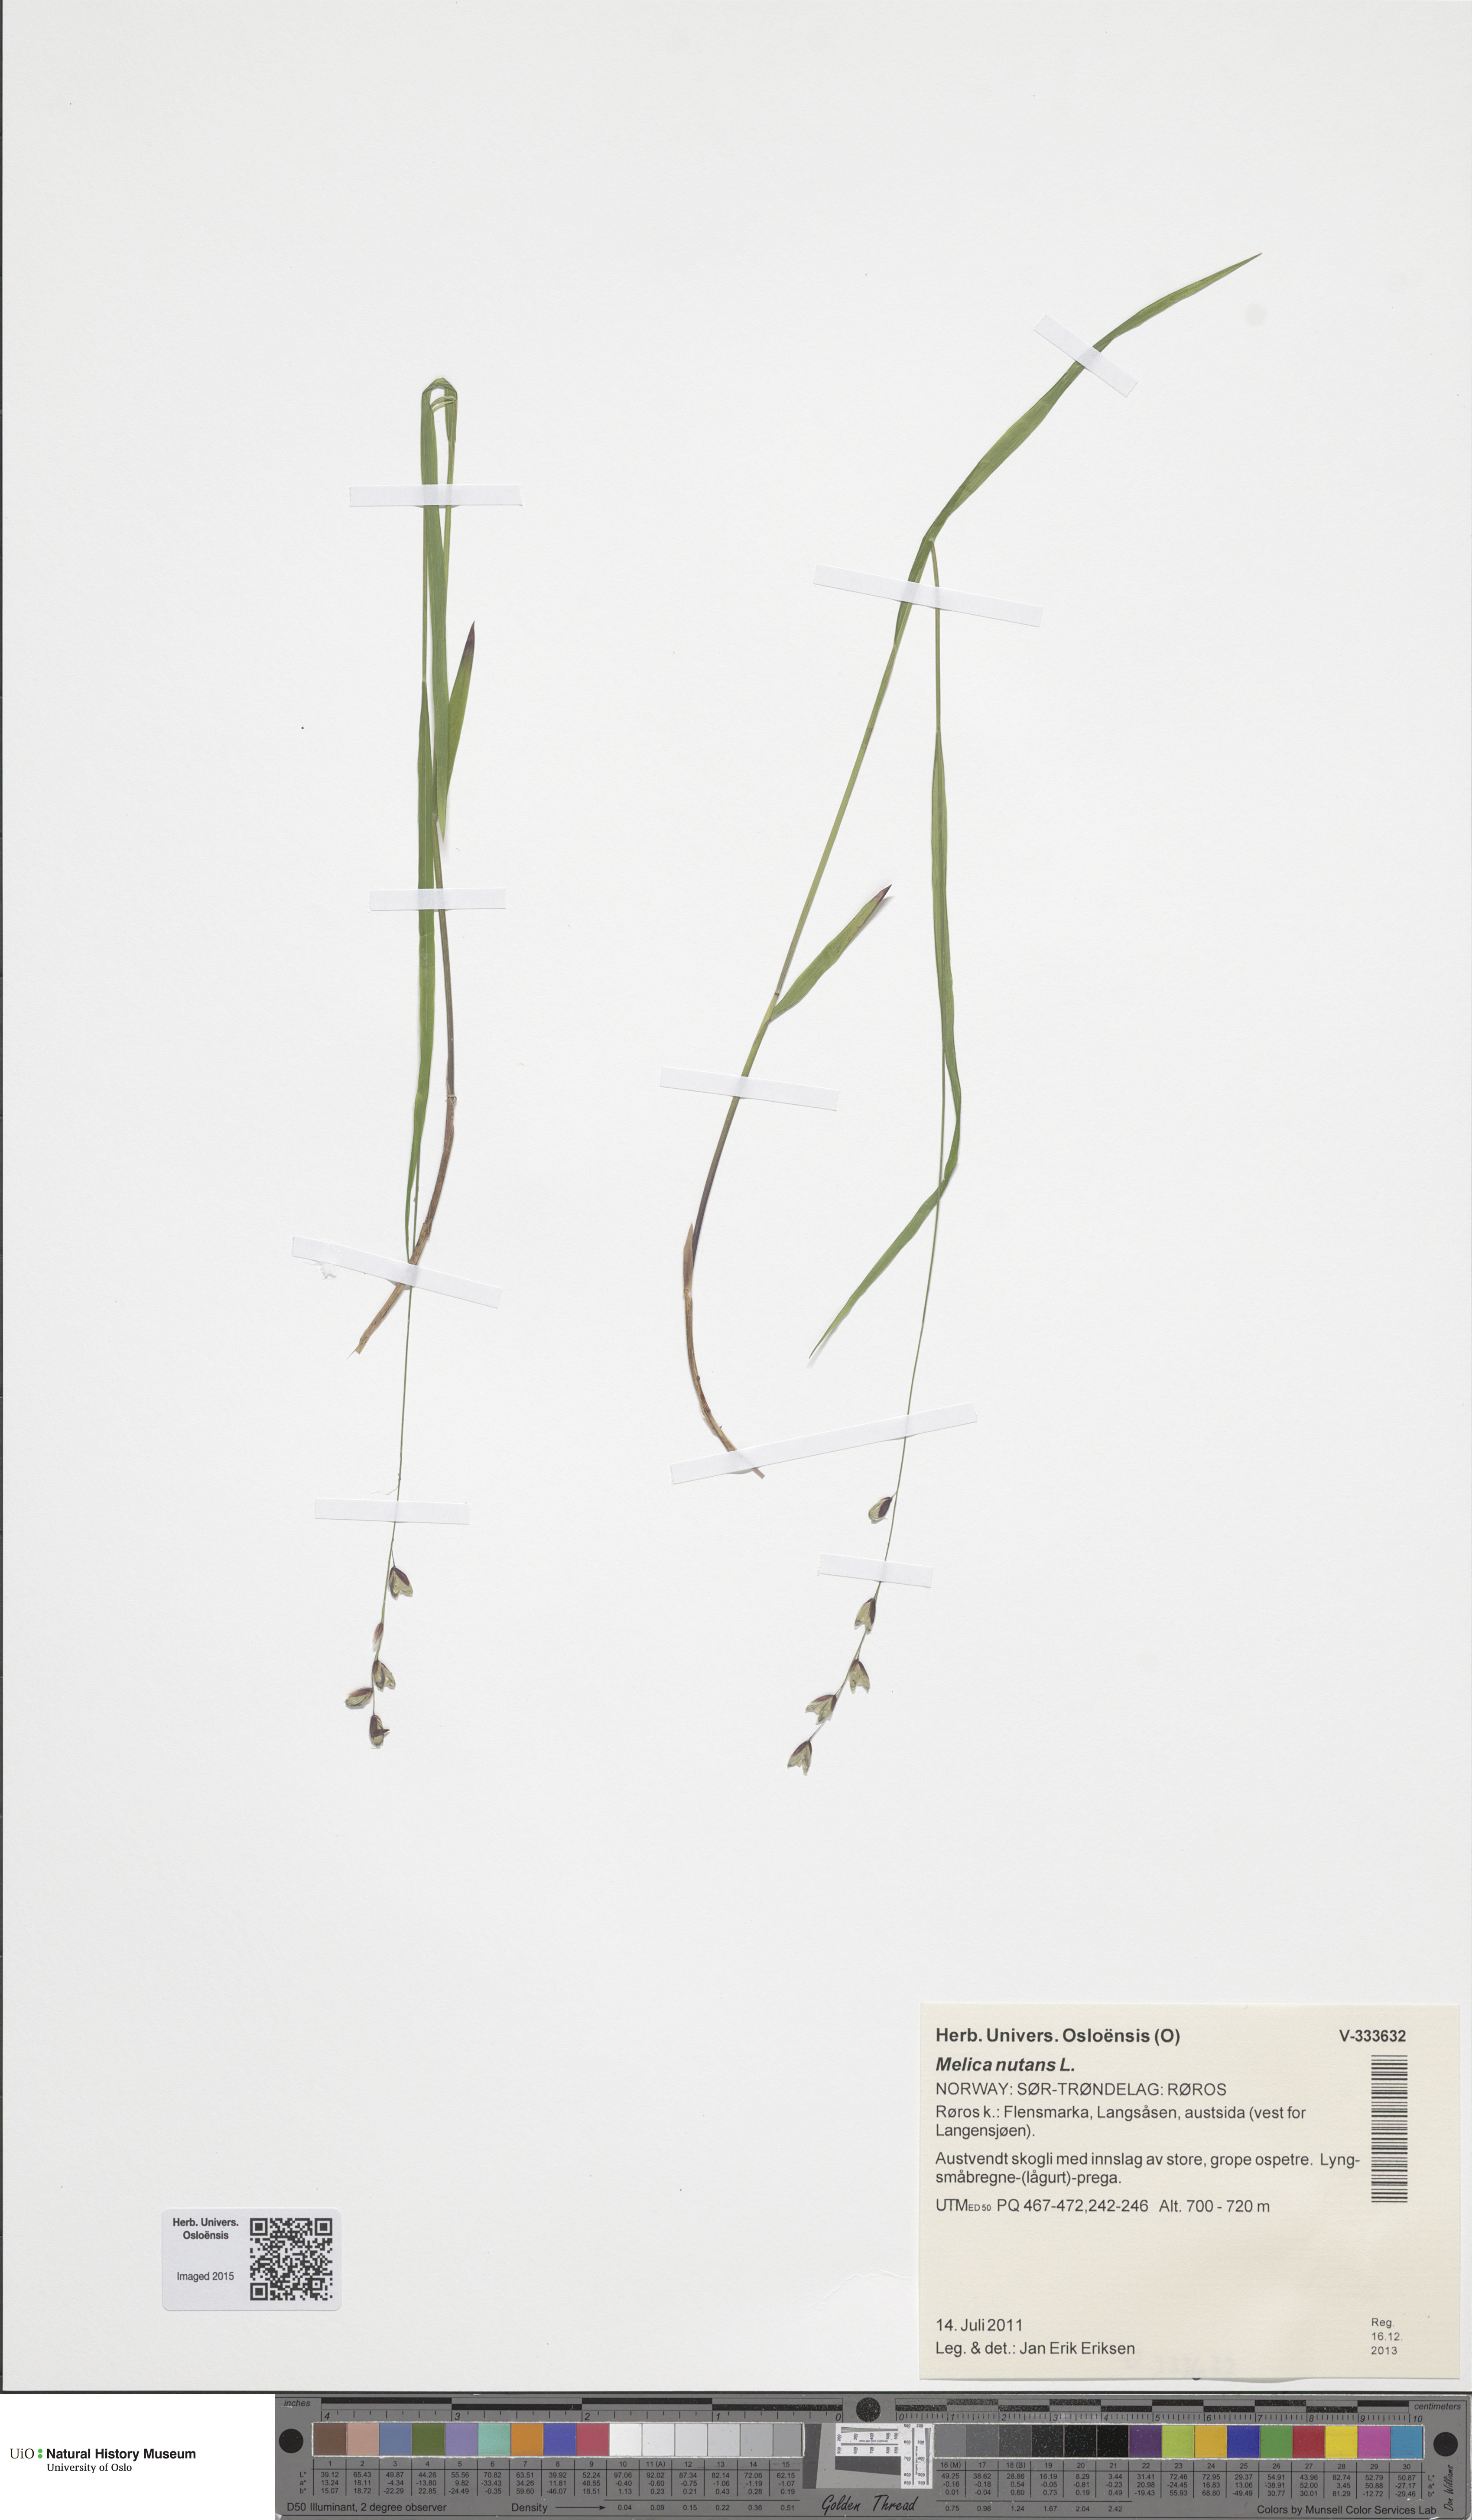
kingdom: Plantae
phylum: Tracheophyta
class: Liliopsida
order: Poales
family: Poaceae
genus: Melica
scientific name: Melica nutans
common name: Mountain melick
